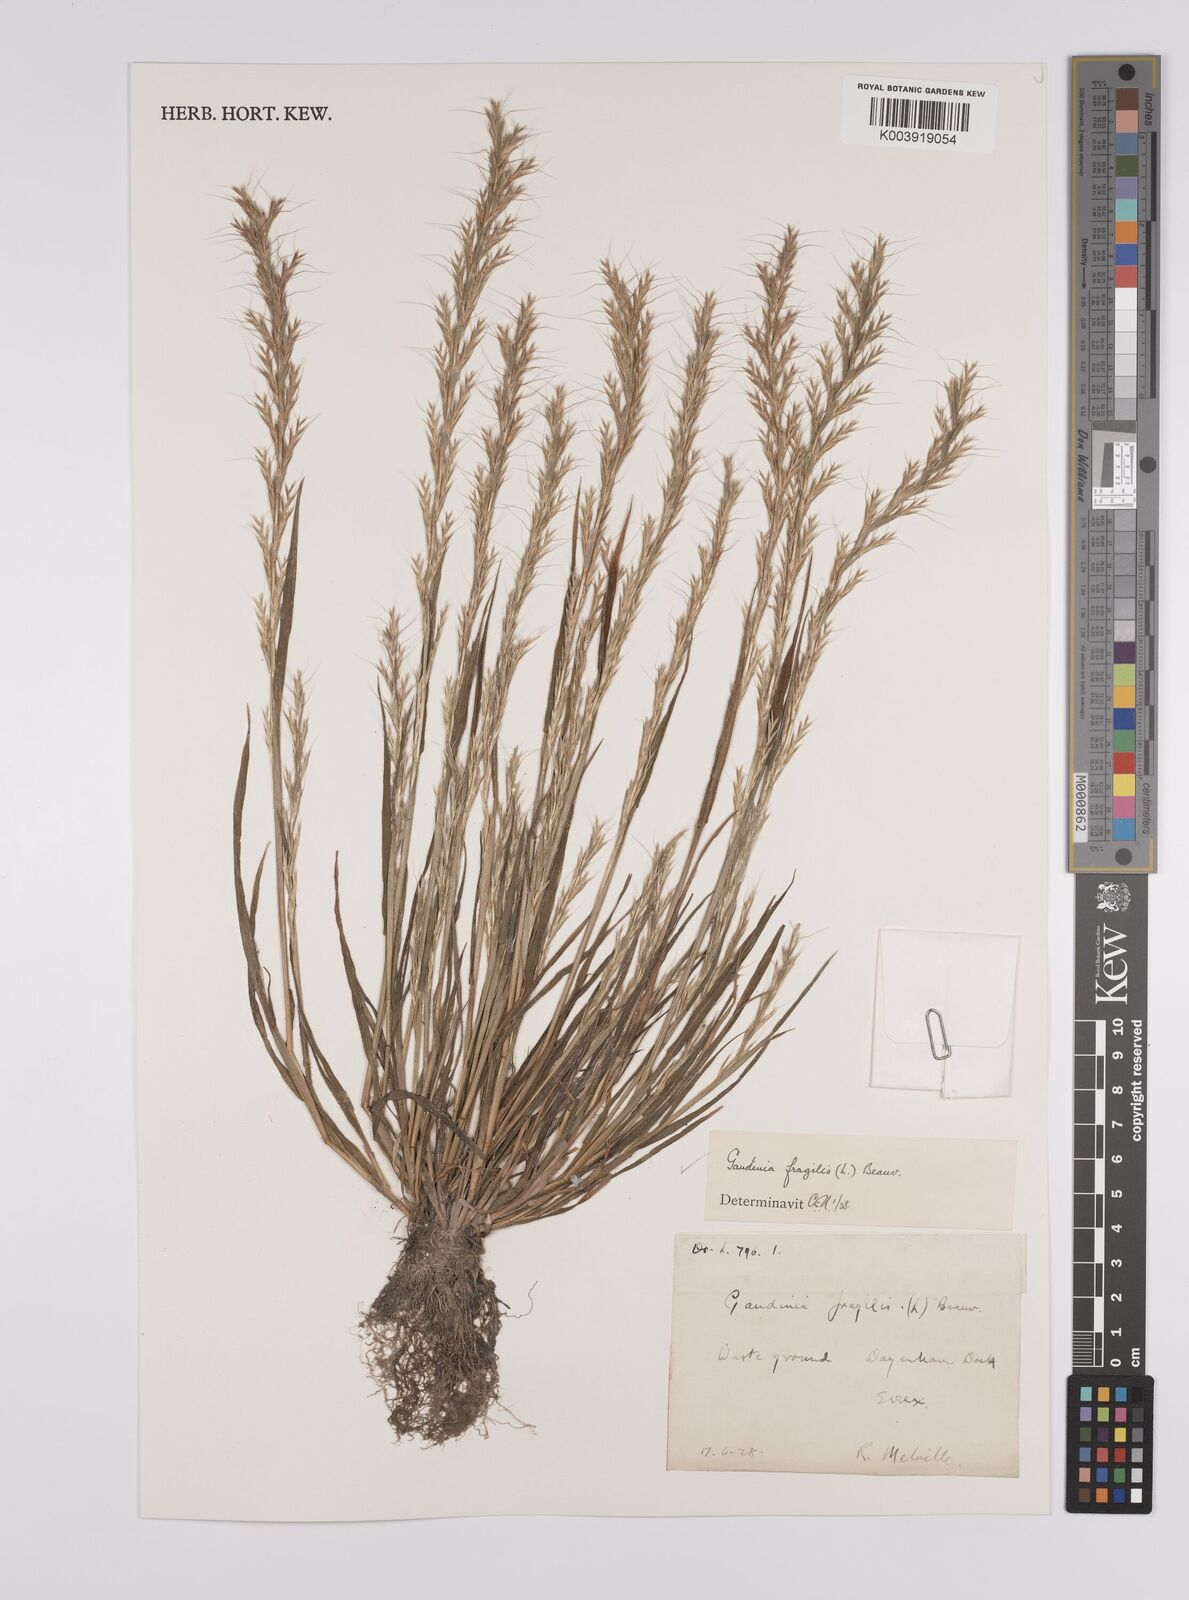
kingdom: Plantae
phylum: Tracheophyta
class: Liliopsida
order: Poales
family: Poaceae
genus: Gaudinia
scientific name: Gaudinia fragilis
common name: French oat-grass
